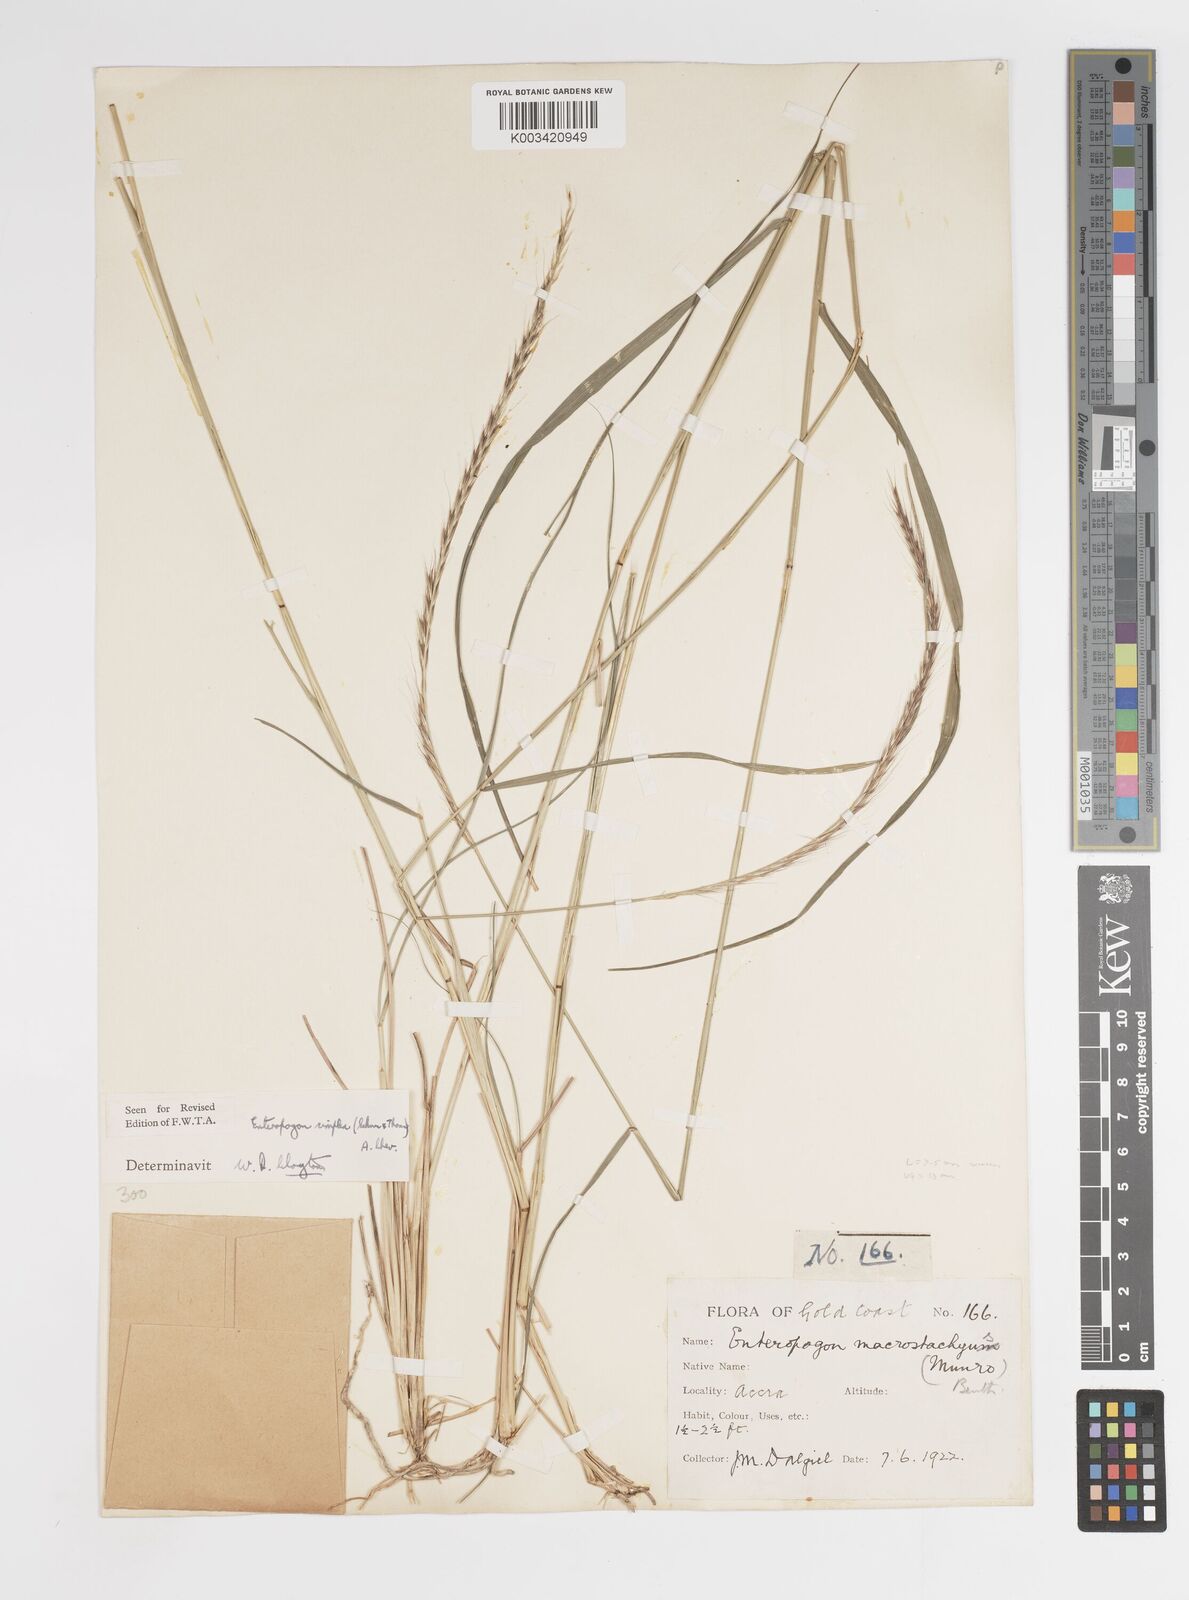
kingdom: Plantae
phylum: Tracheophyta
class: Liliopsida
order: Poales
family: Poaceae
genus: Enteropogon
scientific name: Enteropogon macrostachyus
